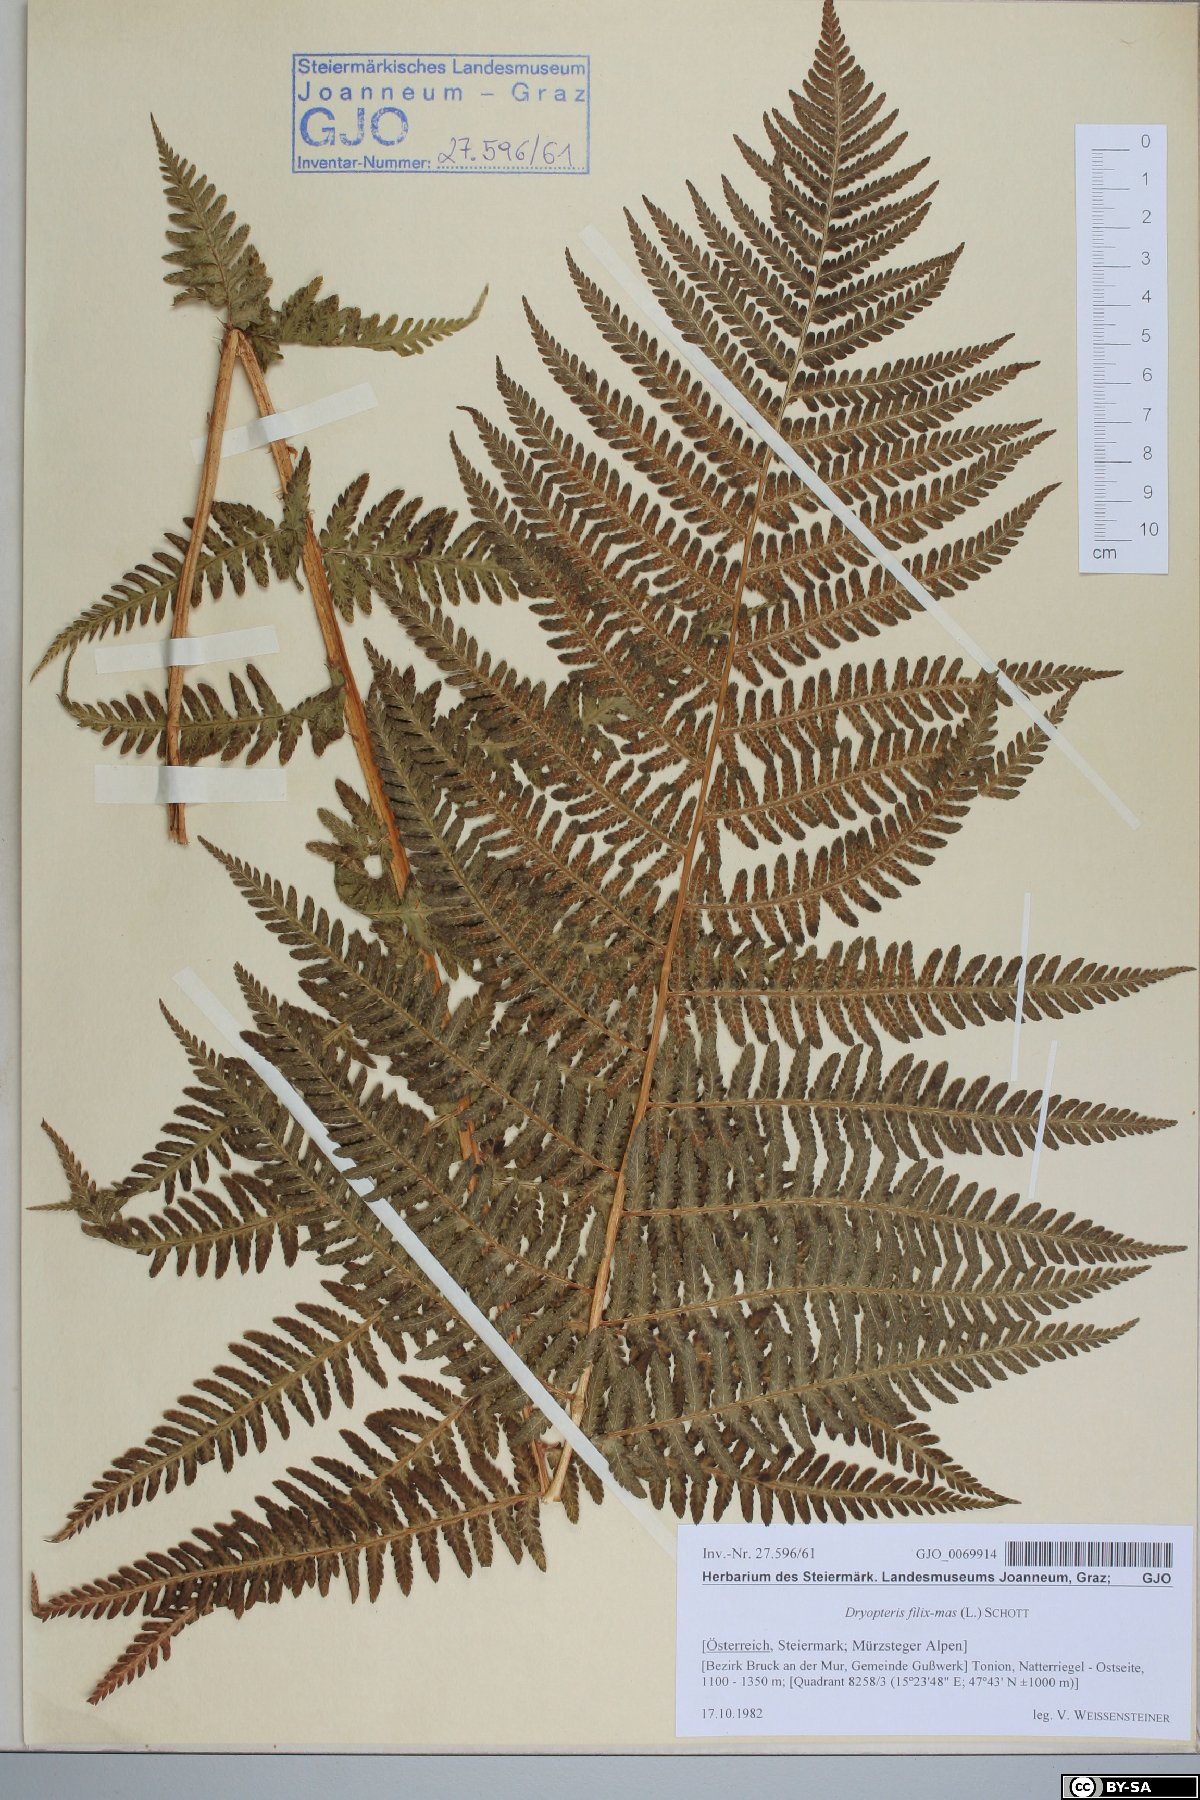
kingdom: Plantae
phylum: Tracheophyta
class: Polypodiopsida
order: Polypodiales
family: Dryopteridaceae
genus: Dryopteris
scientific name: Dryopteris filix-mas
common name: Male fern
